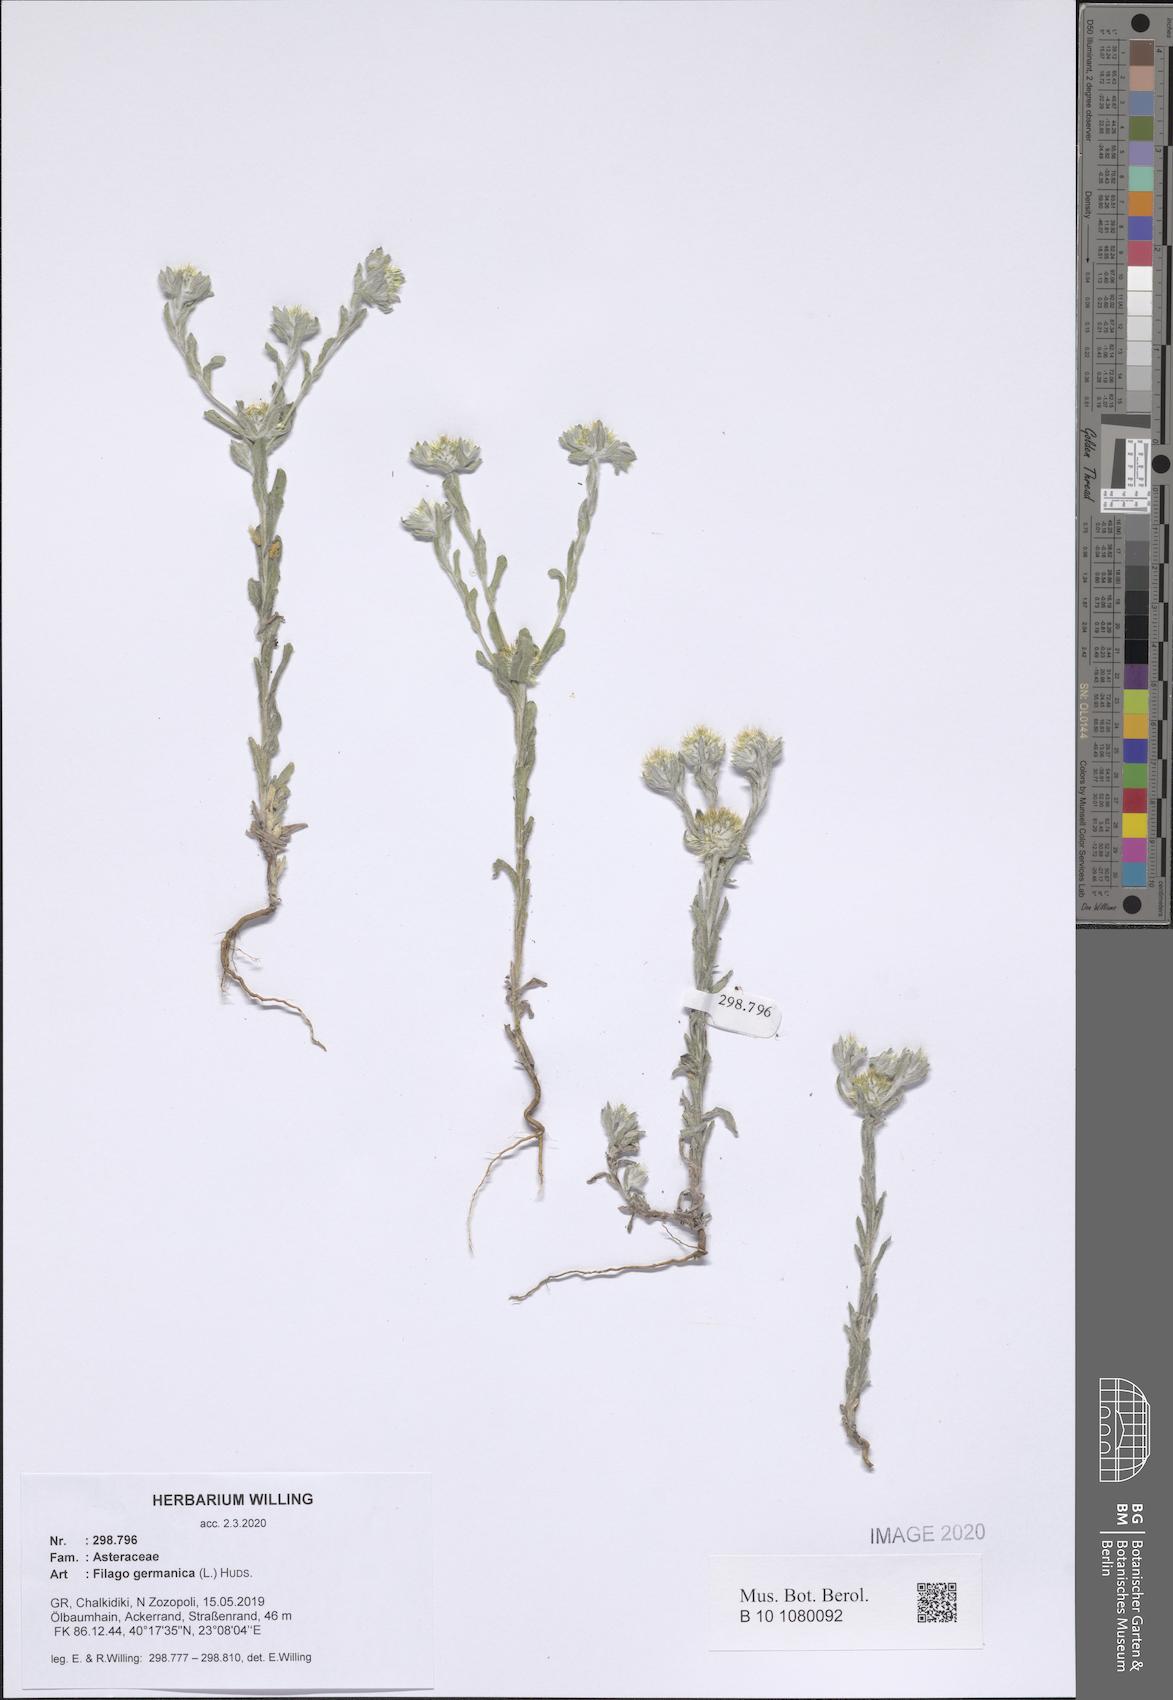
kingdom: Plantae
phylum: Tracheophyta
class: Magnoliopsida
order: Asterales
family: Asteraceae
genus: Filago
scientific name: Filago germanica
